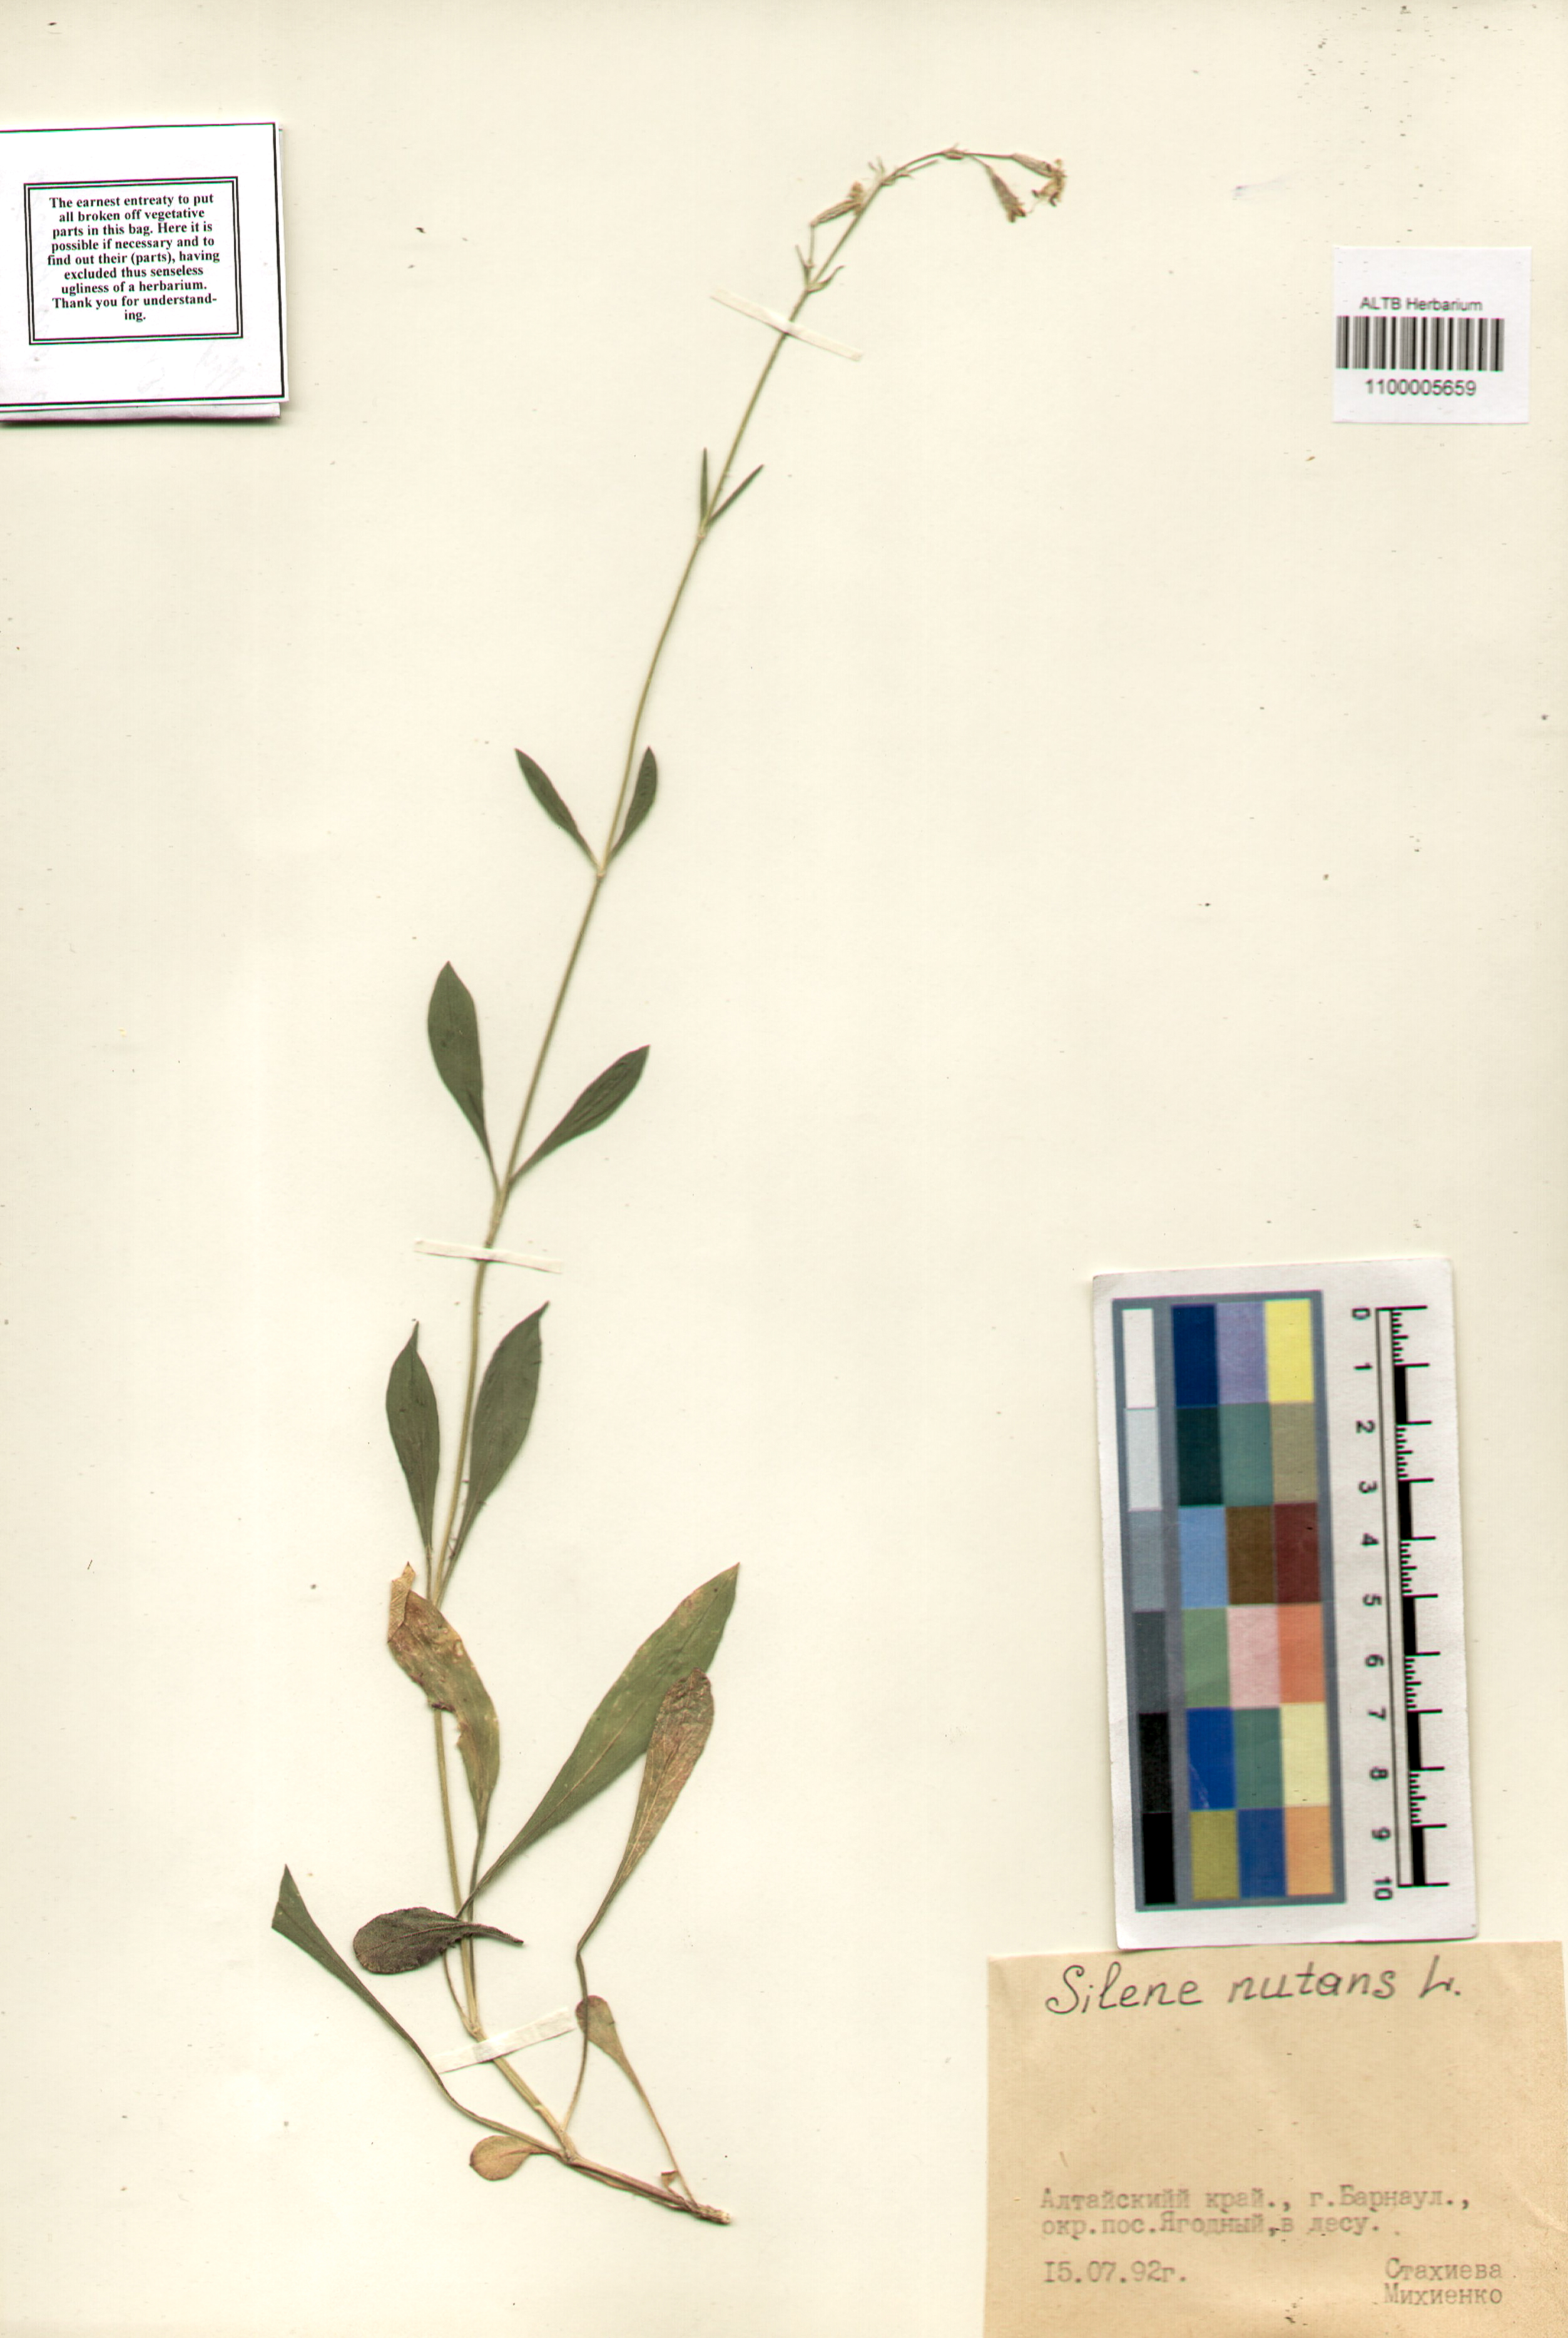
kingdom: Plantae
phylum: Tracheophyta
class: Magnoliopsida
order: Caryophyllales
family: Caryophyllaceae
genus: Silene
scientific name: Silene nutans
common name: Nottingham catchfly
